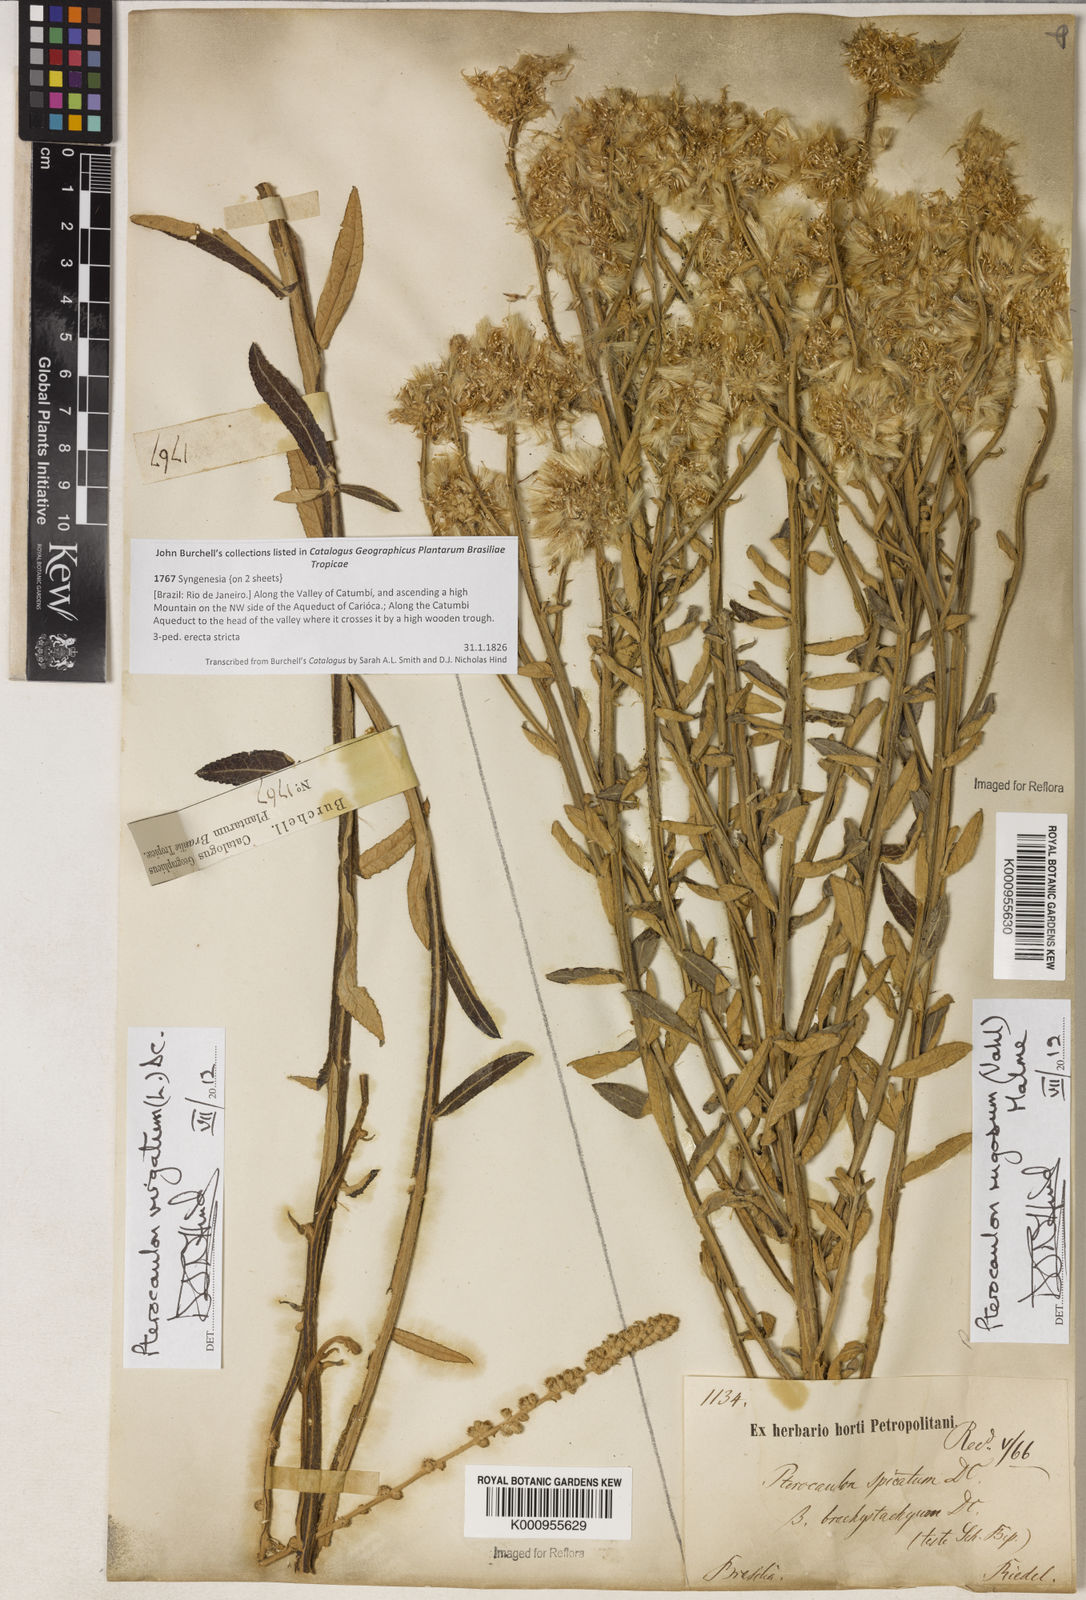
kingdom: Plantae
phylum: Tracheophyta
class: Magnoliopsida
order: Asterales
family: Asteraceae
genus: Pterocaulon
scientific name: Pterocaulon virgatum
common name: Wand blackroot
